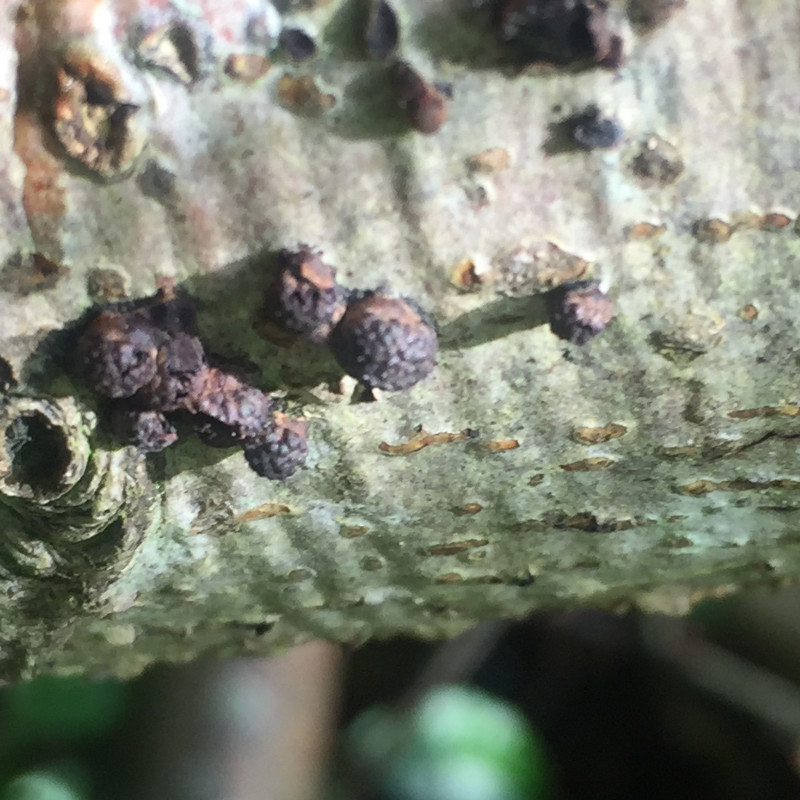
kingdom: Fungi
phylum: Ascomycota
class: Sordariomycetes
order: Xylariales
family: Hypoxylaceae
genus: Hypoxylon
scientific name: Hypoxylon fragiforme
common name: kuljordbær
